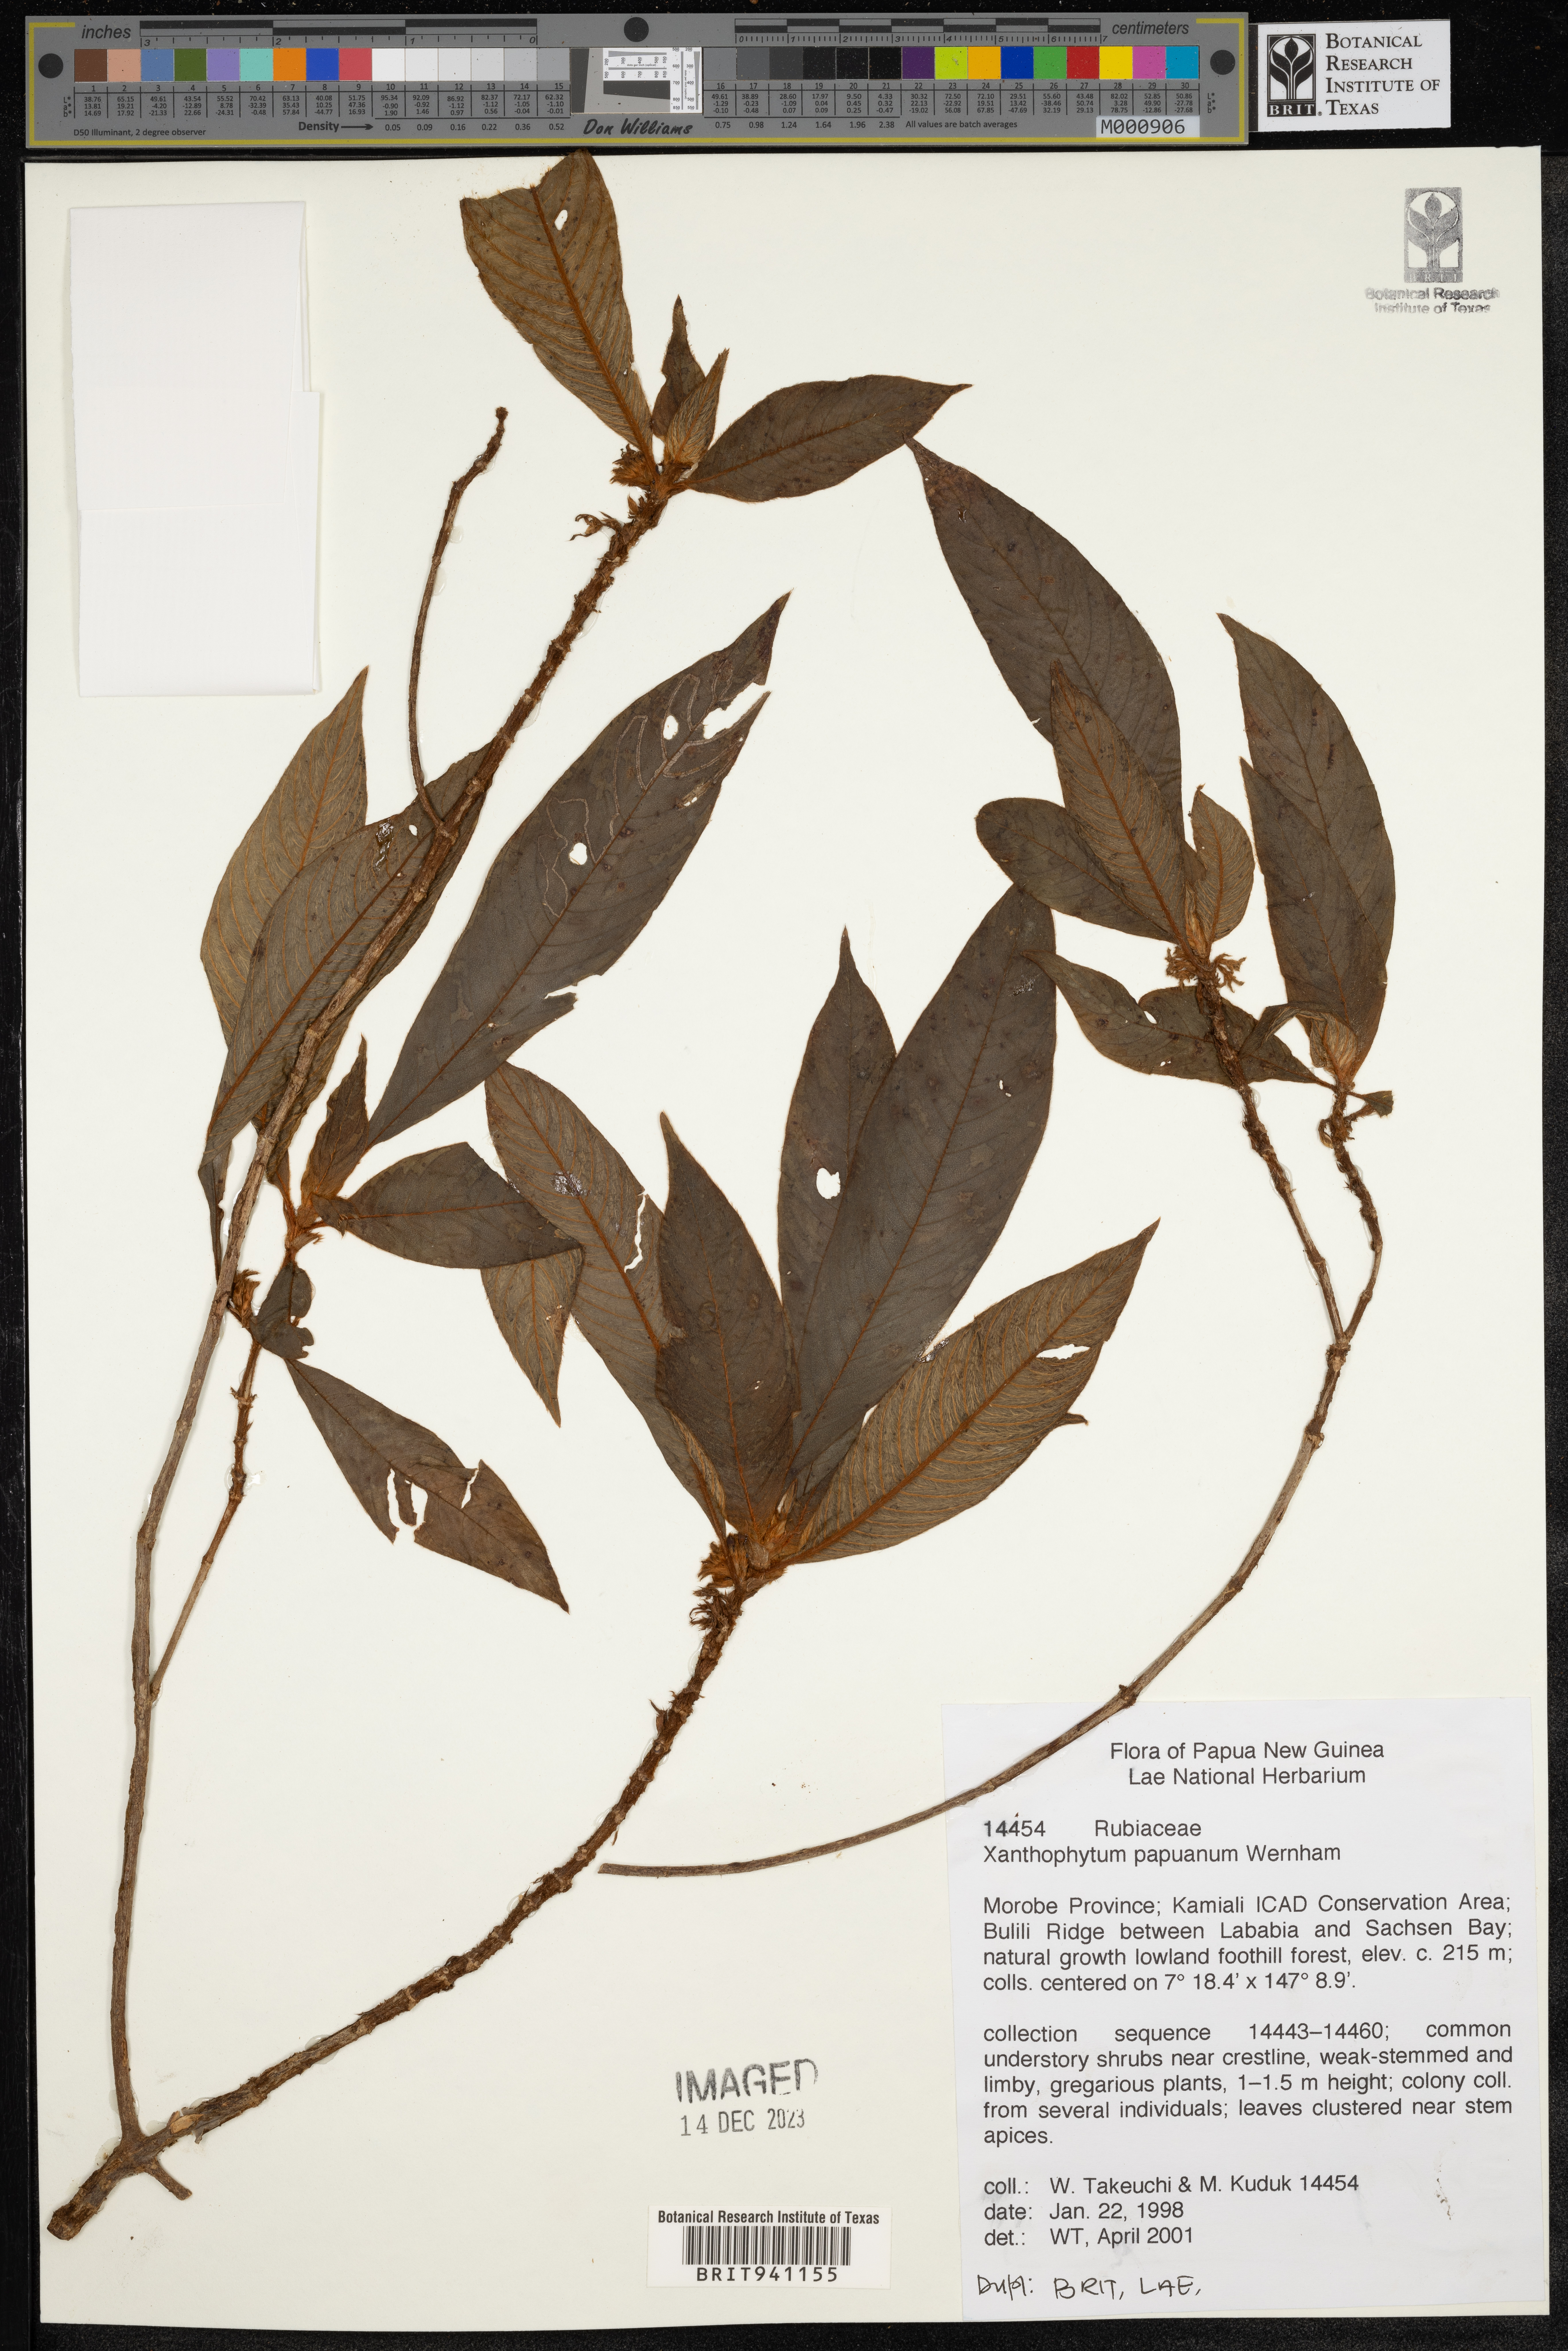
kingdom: Plantae
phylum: Tracheophyta
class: Magnoliopsida
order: Gentianales
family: Rubiaceae
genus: Xanthophytum
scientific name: Xanthophytum
